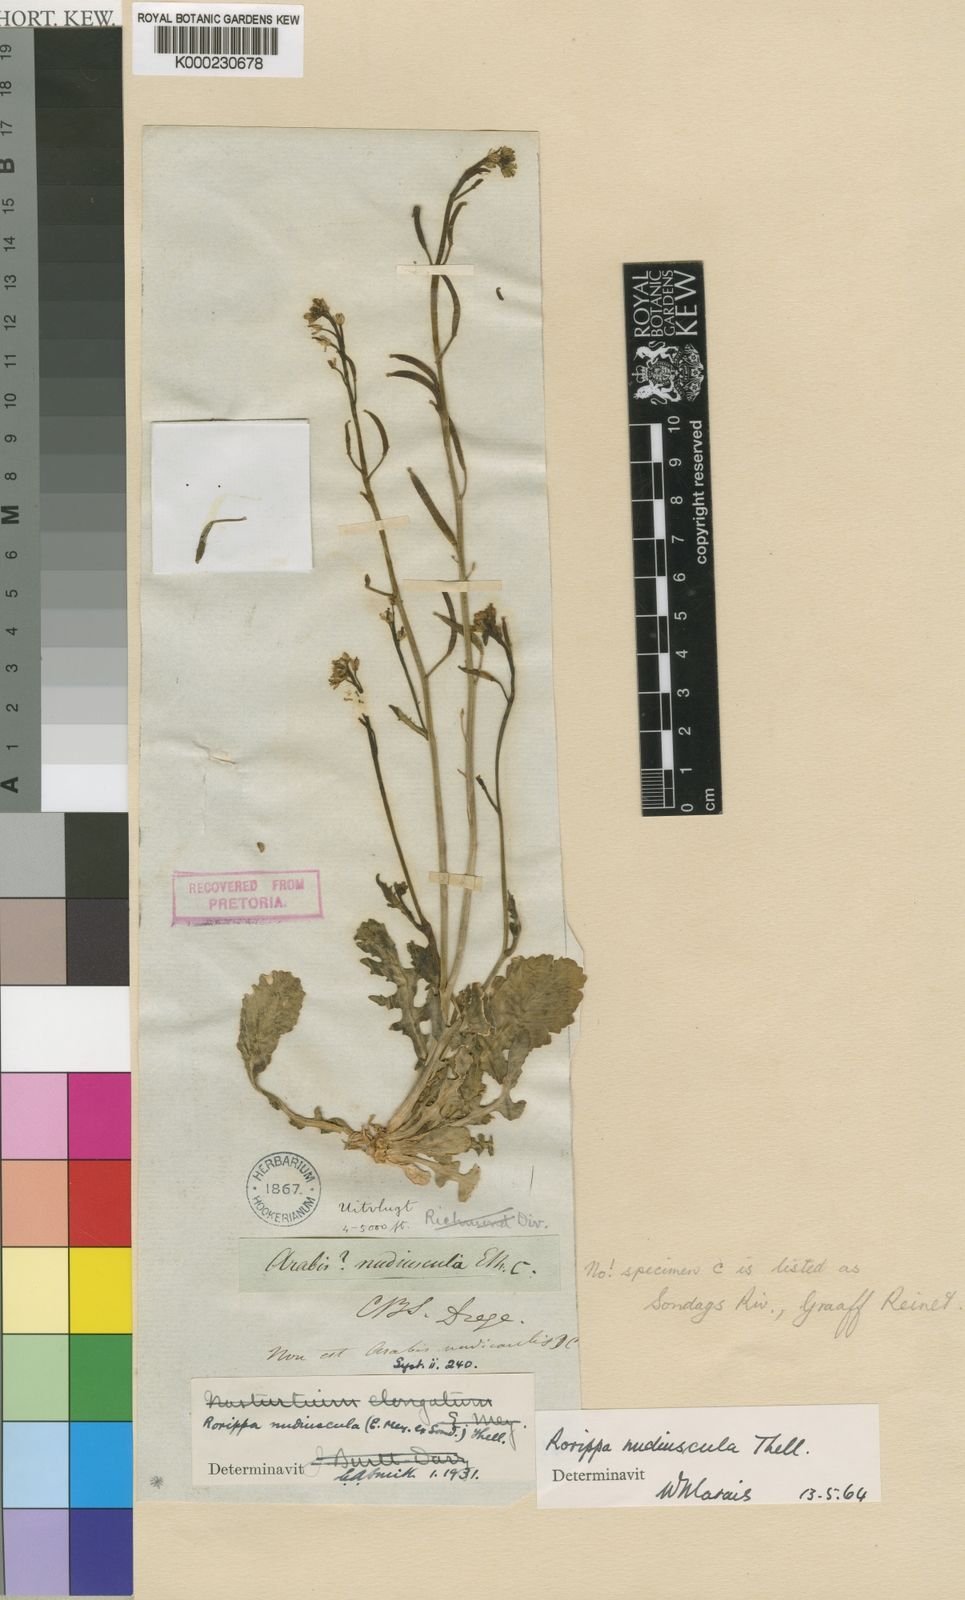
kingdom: Plantae
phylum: Tracheophyta
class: Magnoliopsida
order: Brassicales
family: Brassicaceae
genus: Arabis
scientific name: Arabis
